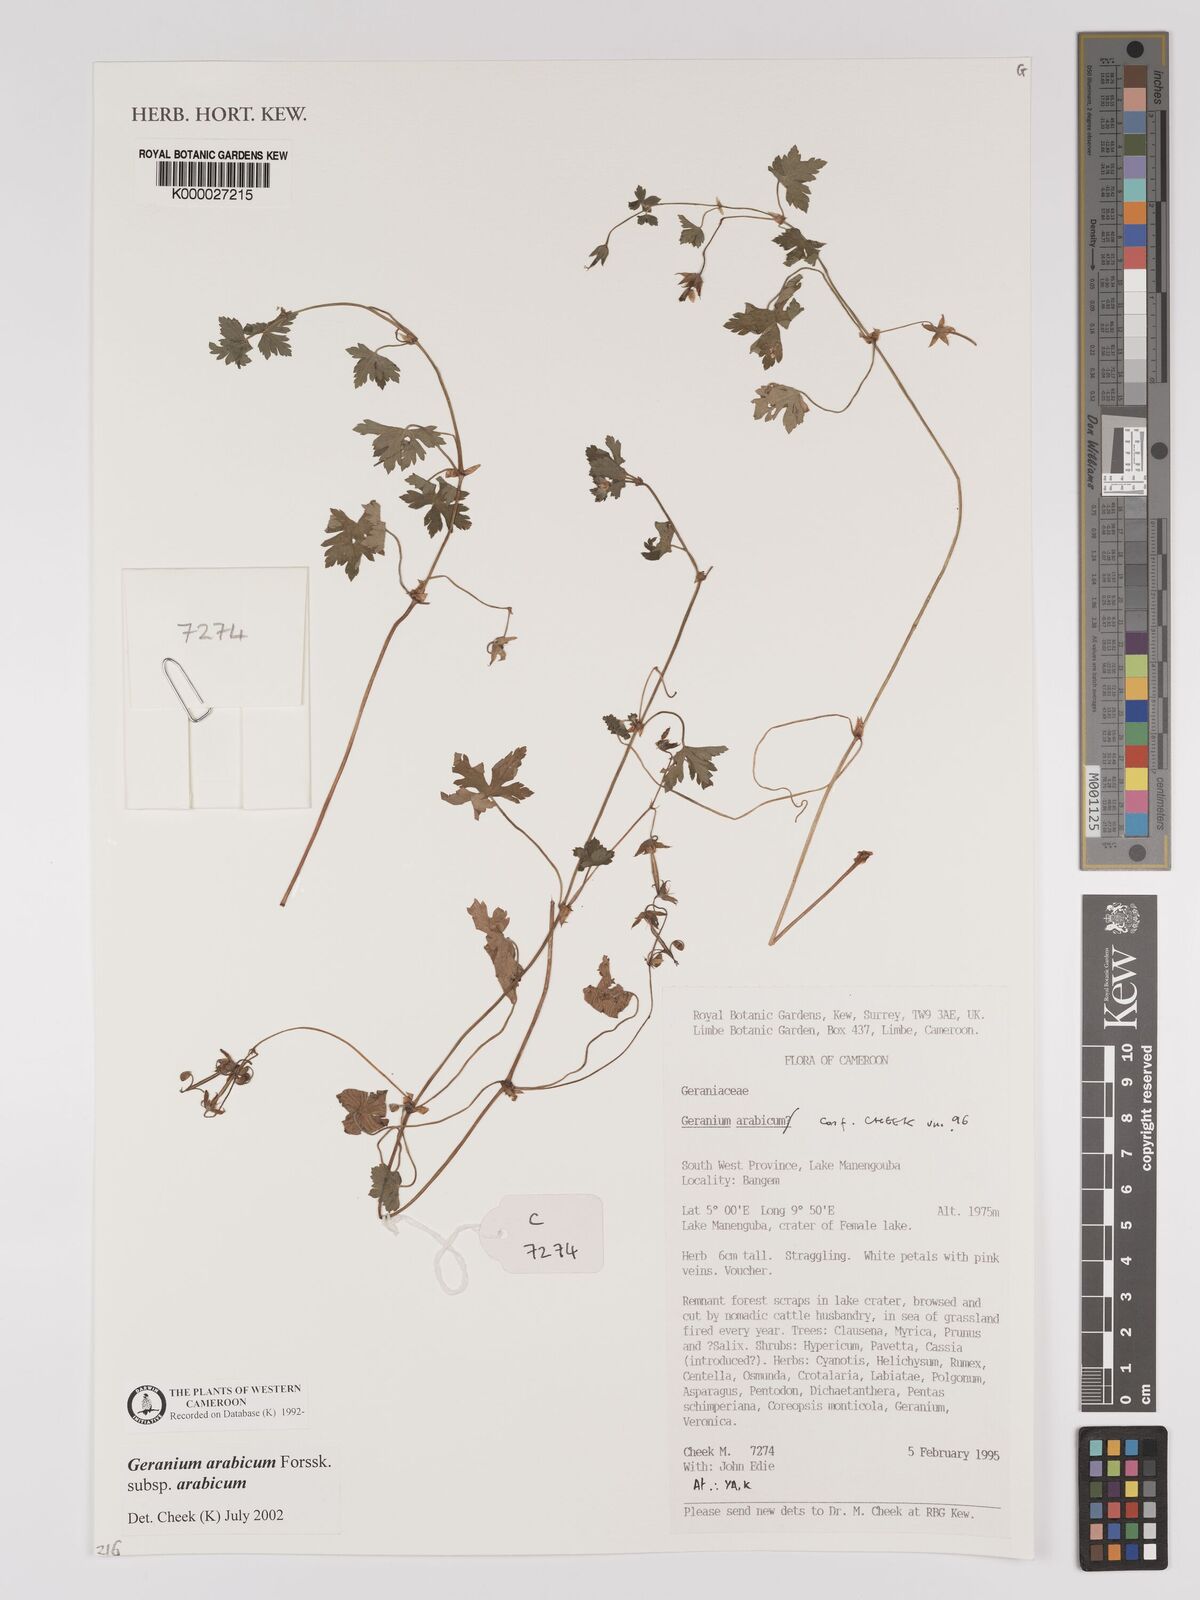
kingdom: Plantae
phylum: Tracheophyta
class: Magnoliopsida
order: Geraniales
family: Geraniaceae
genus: Geranium
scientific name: Geranium arabicum
